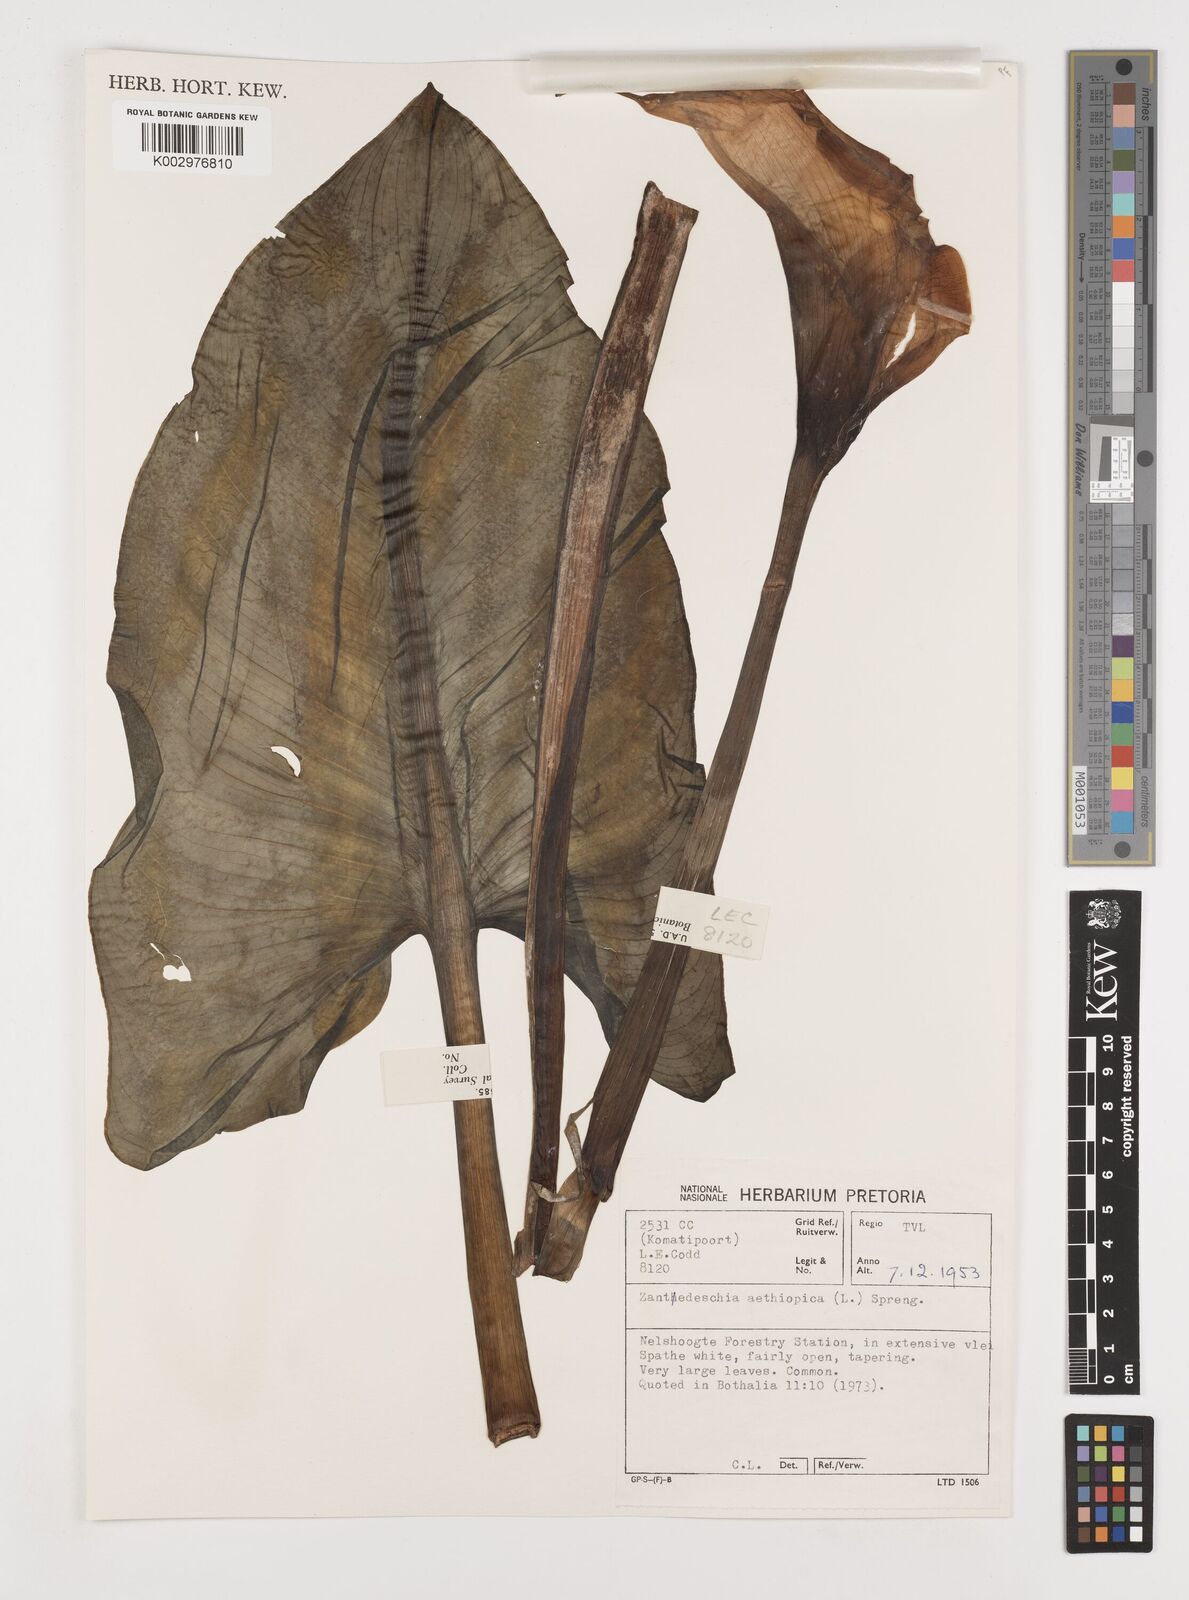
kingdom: Plantae
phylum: Tracheophyta
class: Liliopsida
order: Alismatales
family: Araceae
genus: Zantedeschia
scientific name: Zantedeschia aethiopica
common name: Altar-lily
